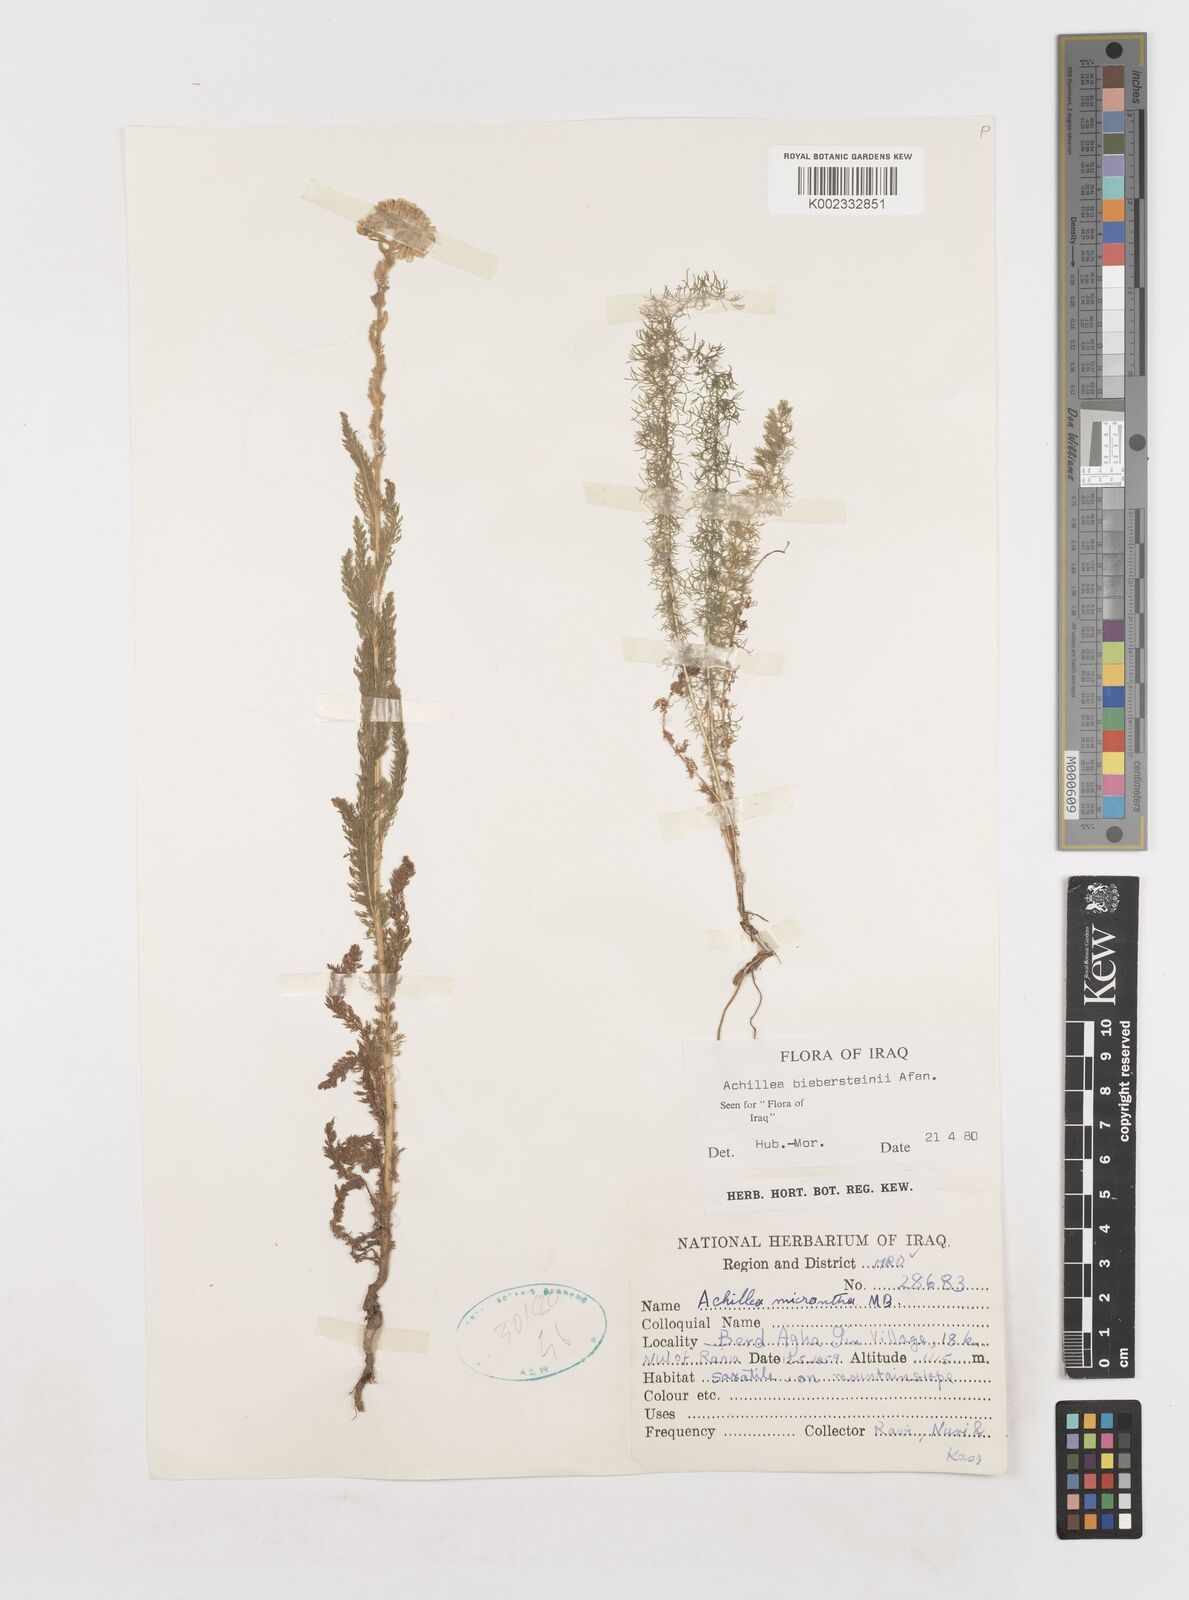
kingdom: Plantae
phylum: Tracheophyta
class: Magnoliopsida
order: Asterales
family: Asteraceae
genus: Achillea
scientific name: Achillea arabica
